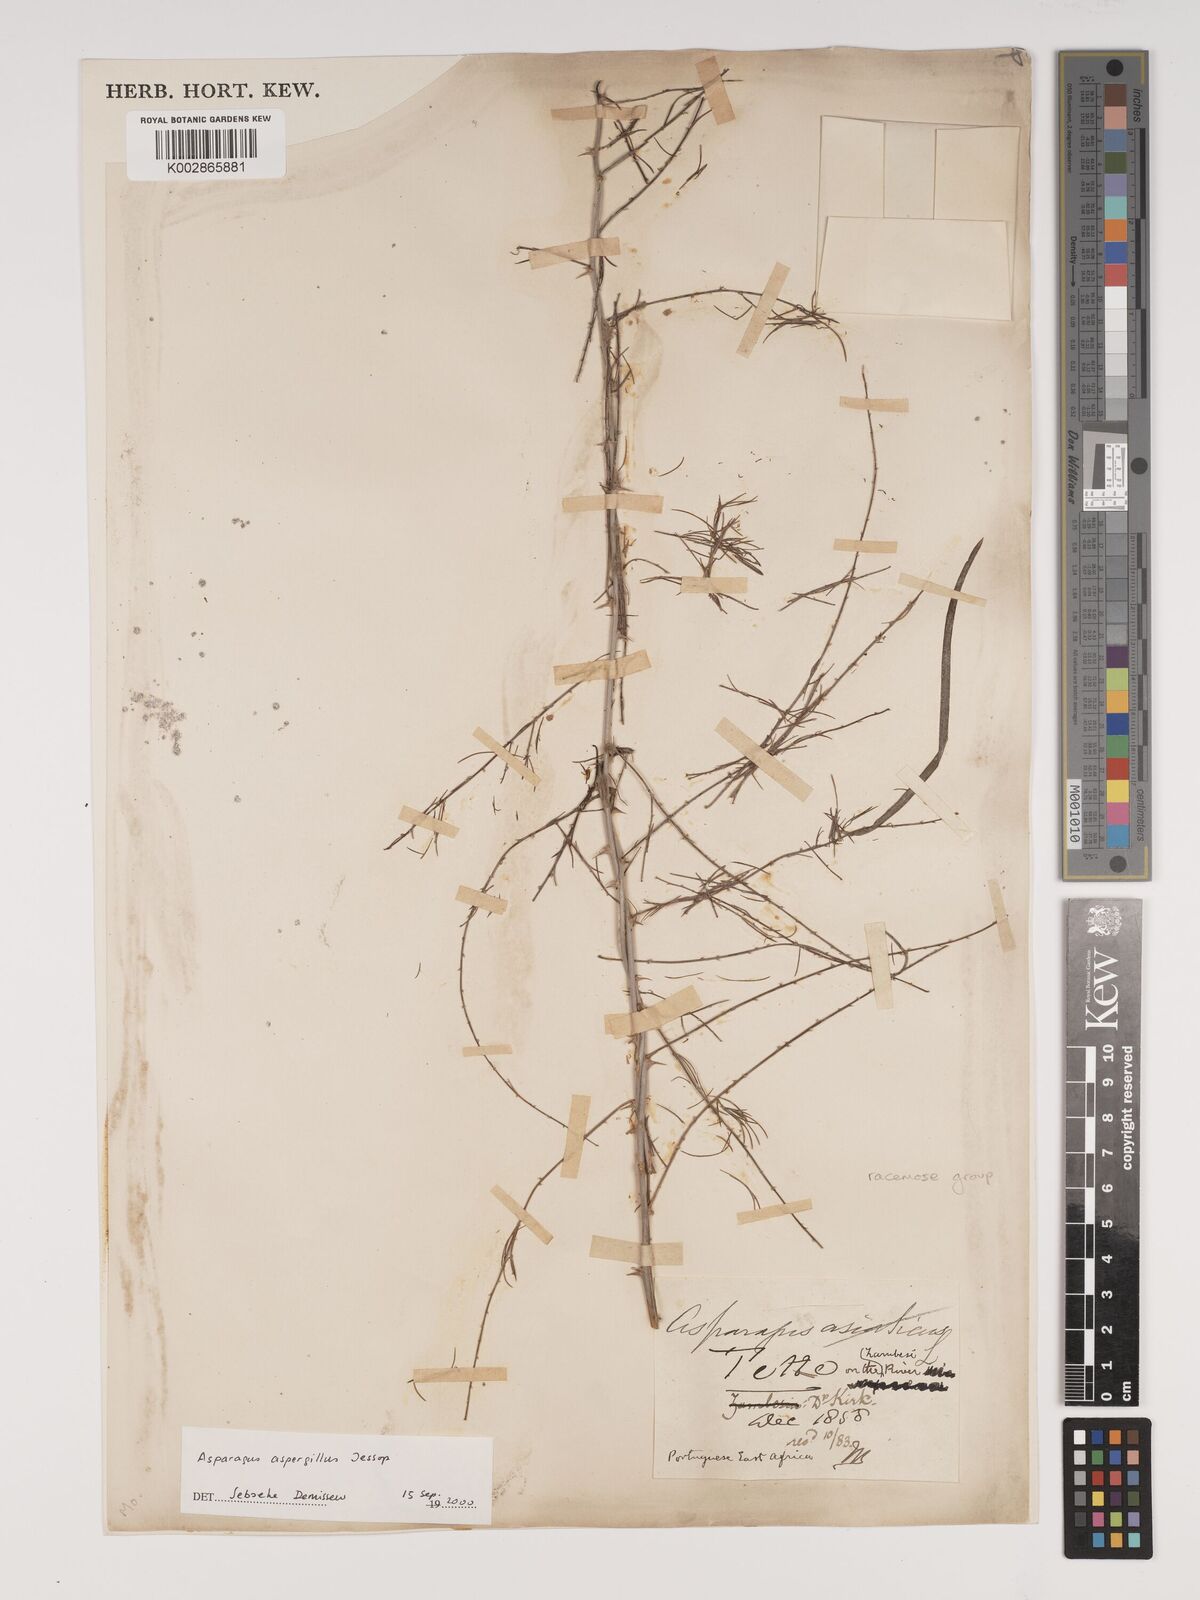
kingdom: Plantae
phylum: Tracheophyta
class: Liliopsida
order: Asparagales
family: Asparagaceae
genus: Asparagus
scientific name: Asparagus aspergillus
